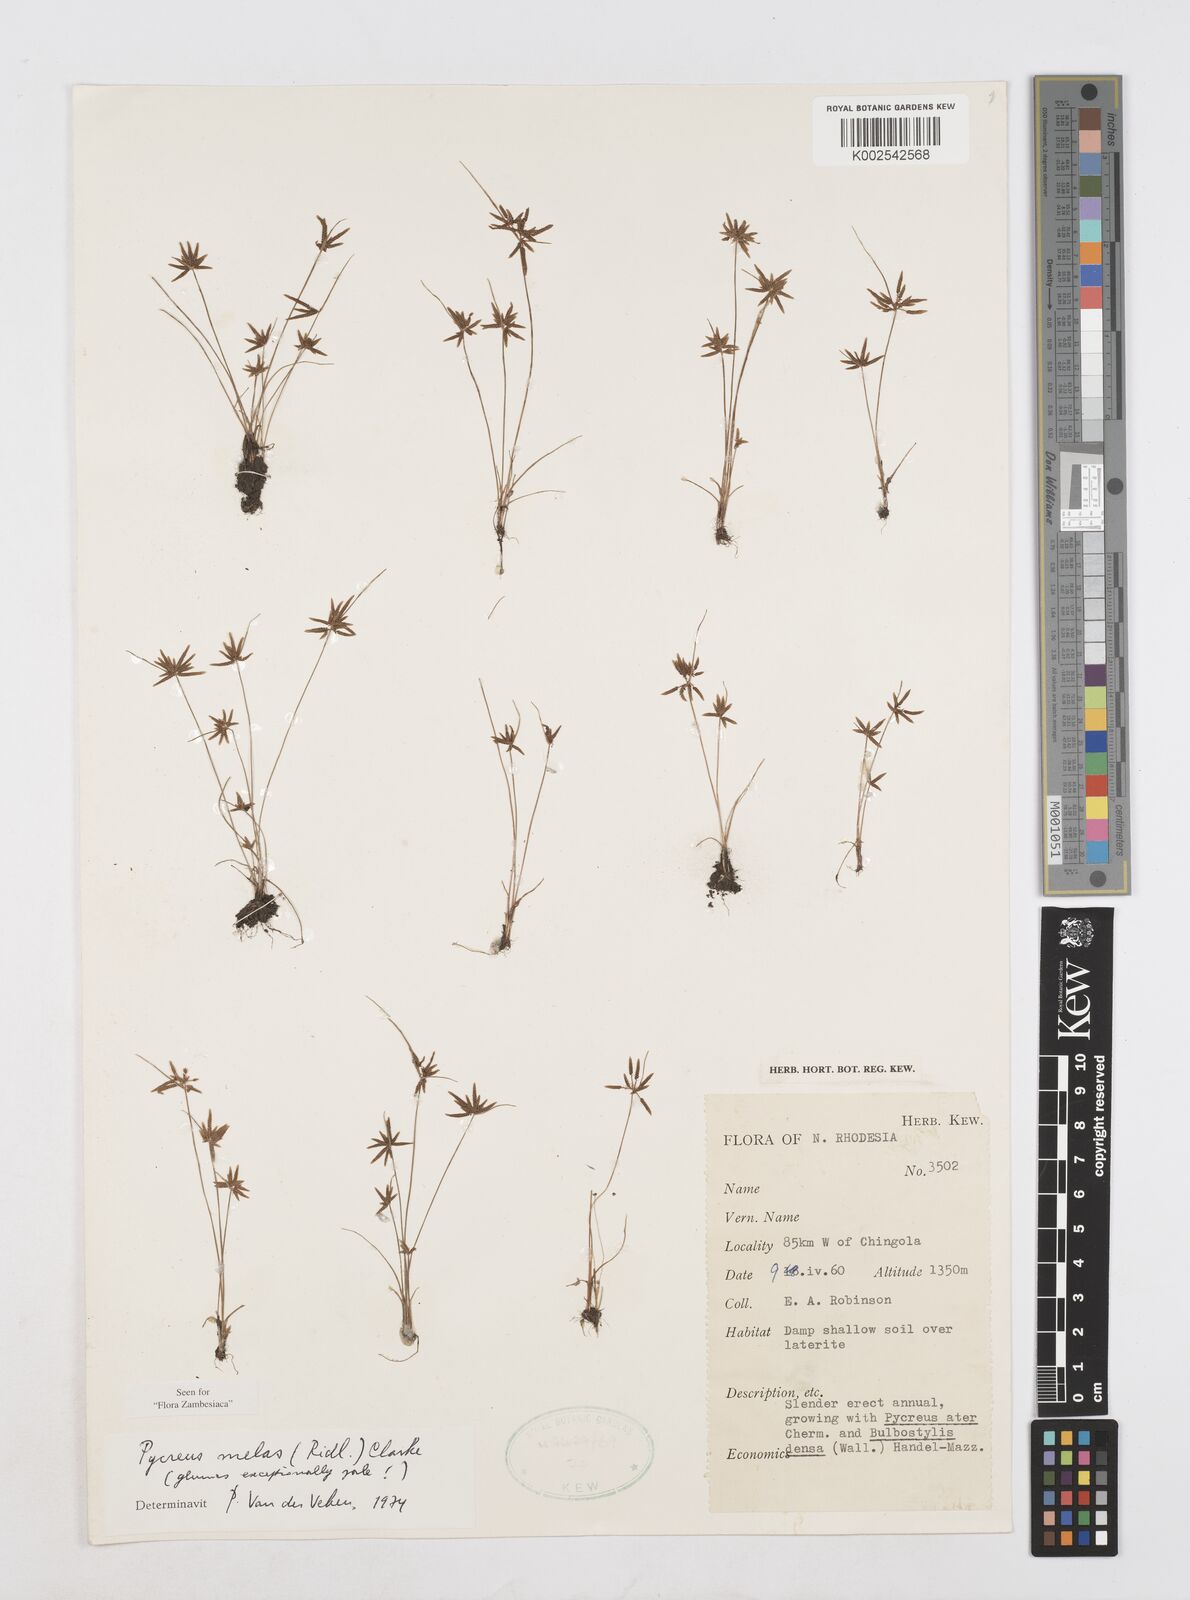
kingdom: Plantae
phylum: Tracheophyta
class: Liliopsida
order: Poales
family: Cyperaceae
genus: Cyperus
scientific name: Cyperus melas
